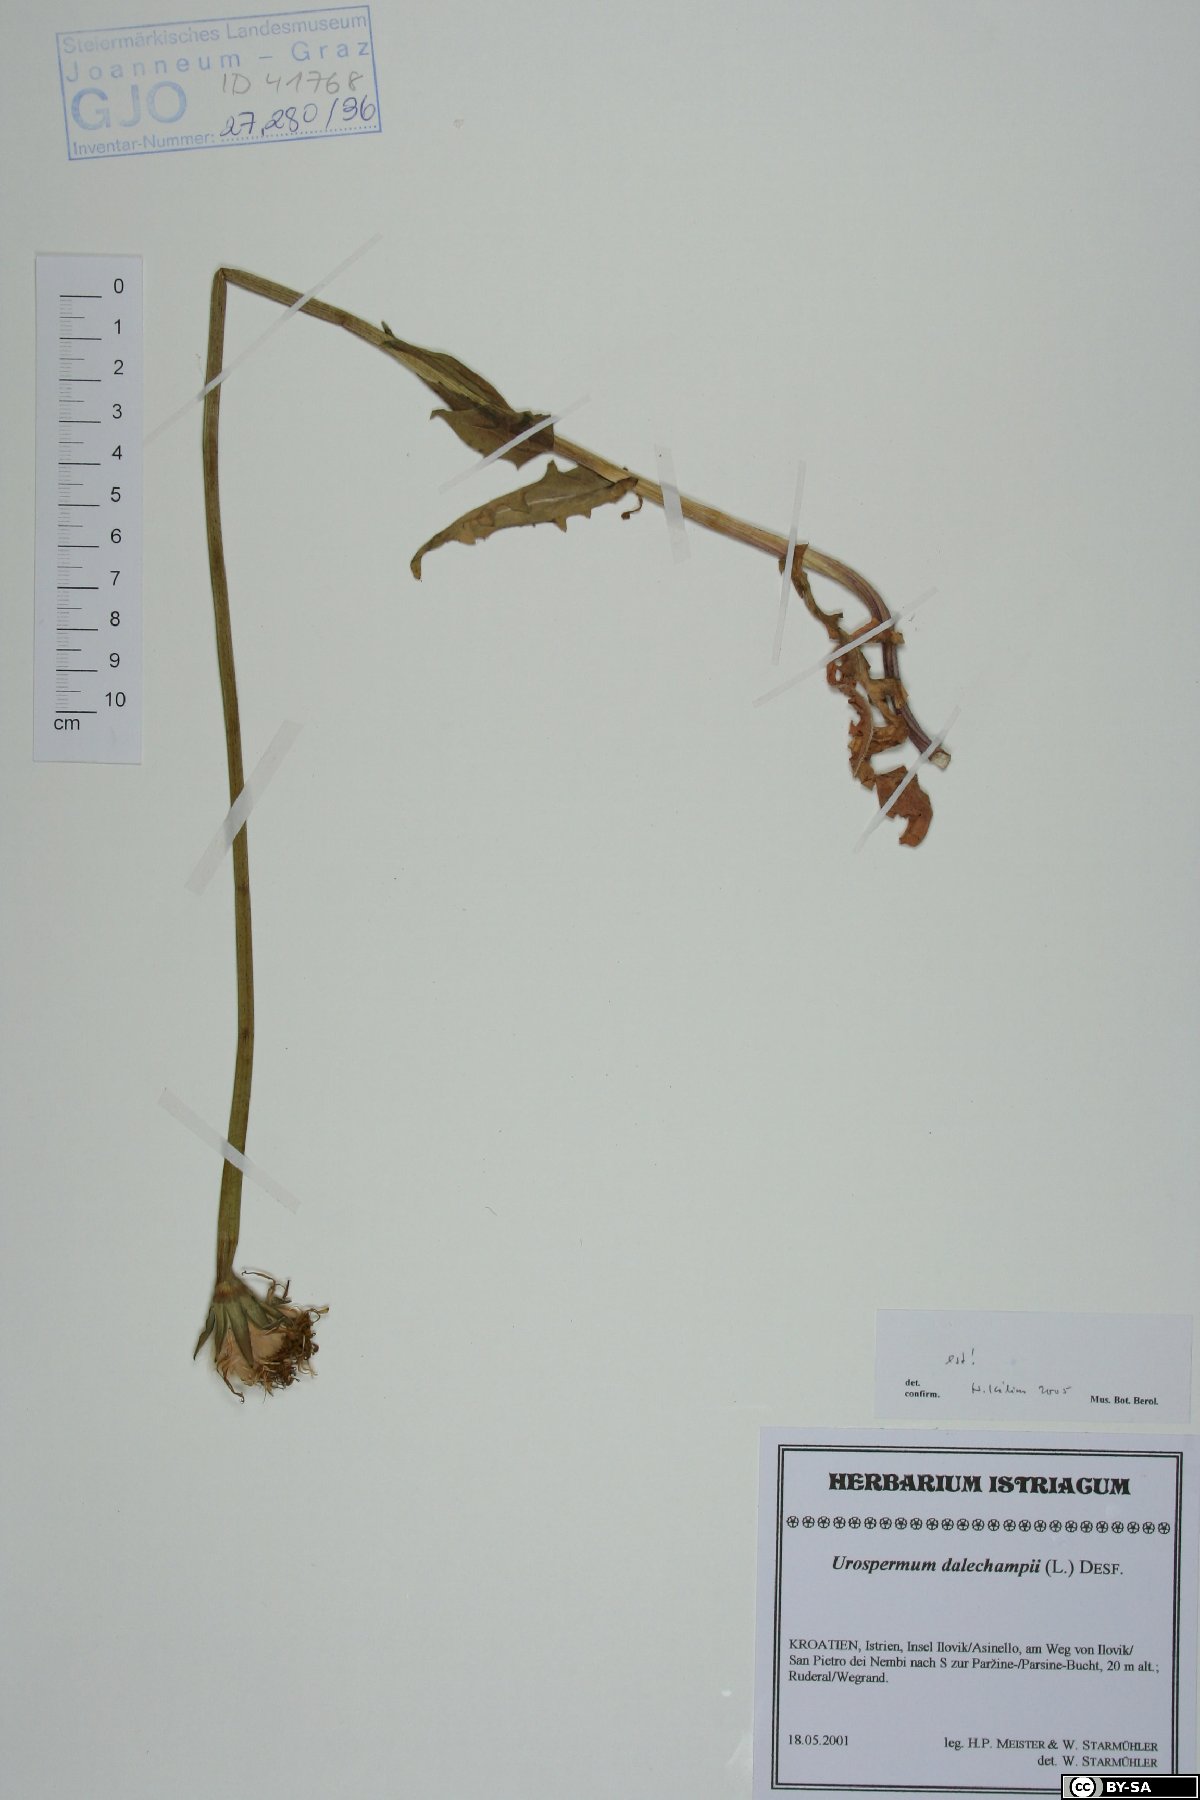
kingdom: Plantae
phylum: Tracheophyta
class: Magnoliopsida
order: Asterales
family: Asteraceae
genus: Urospermum
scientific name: Urospermum dalechampii
